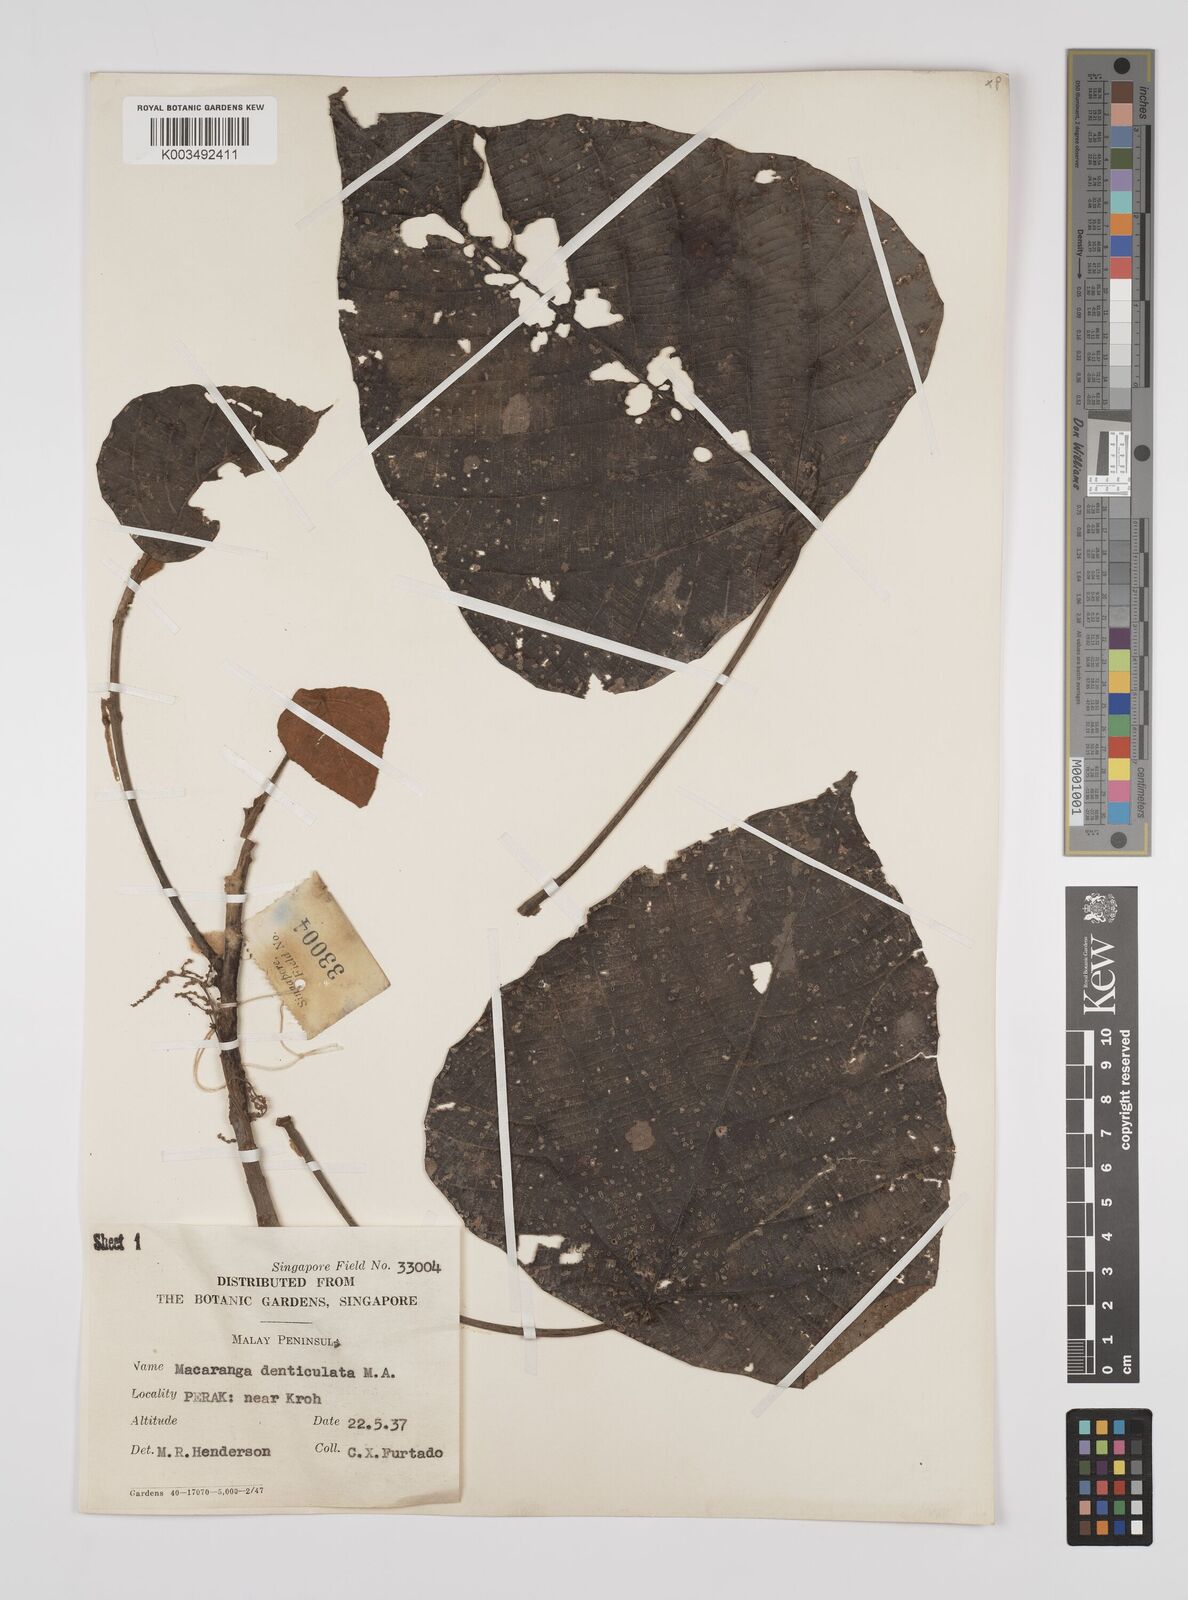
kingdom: Plantae
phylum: Tracheophyta
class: Magnoliopsida
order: Malpighiales
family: Euphorbiaceae
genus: Macaranga
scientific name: Macaranga denticulata
